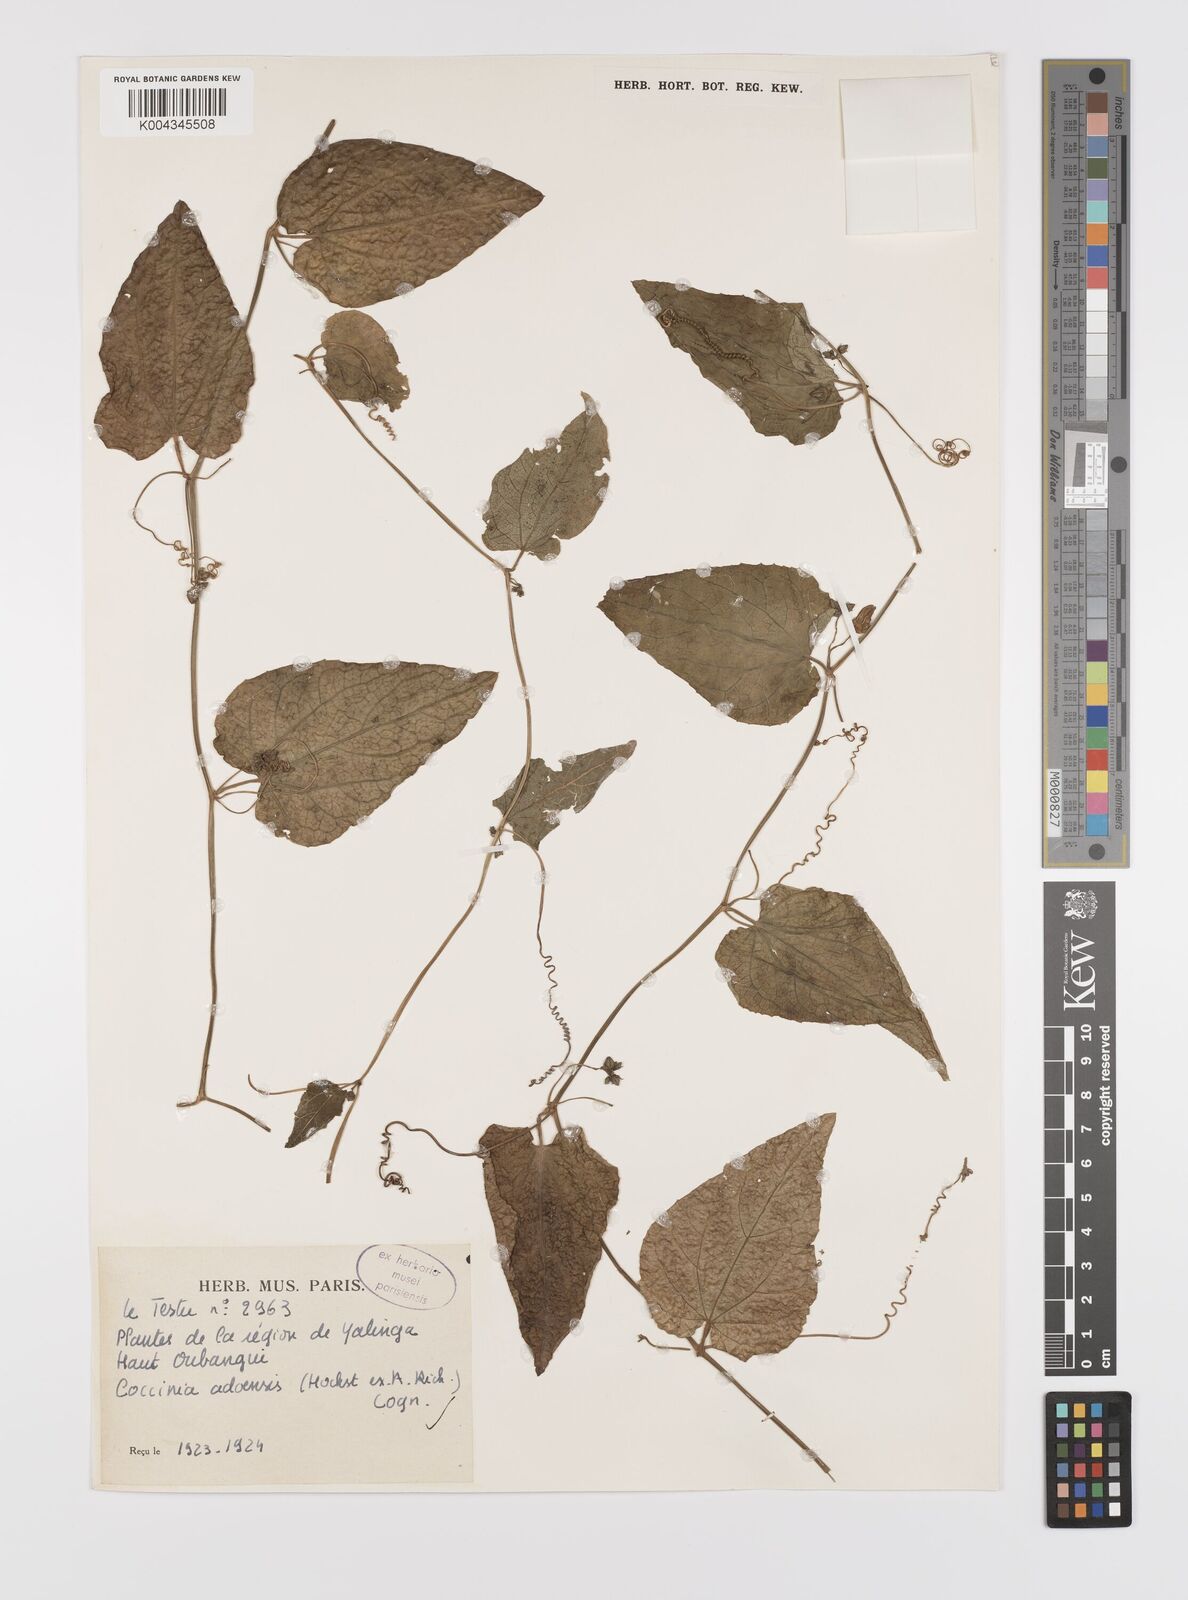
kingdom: Plantae
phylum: Tracheophyta
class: Magnoliopsida
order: Cucurbitales
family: Cucurbitaceae
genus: Coccinia
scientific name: Coccinia adoensis
